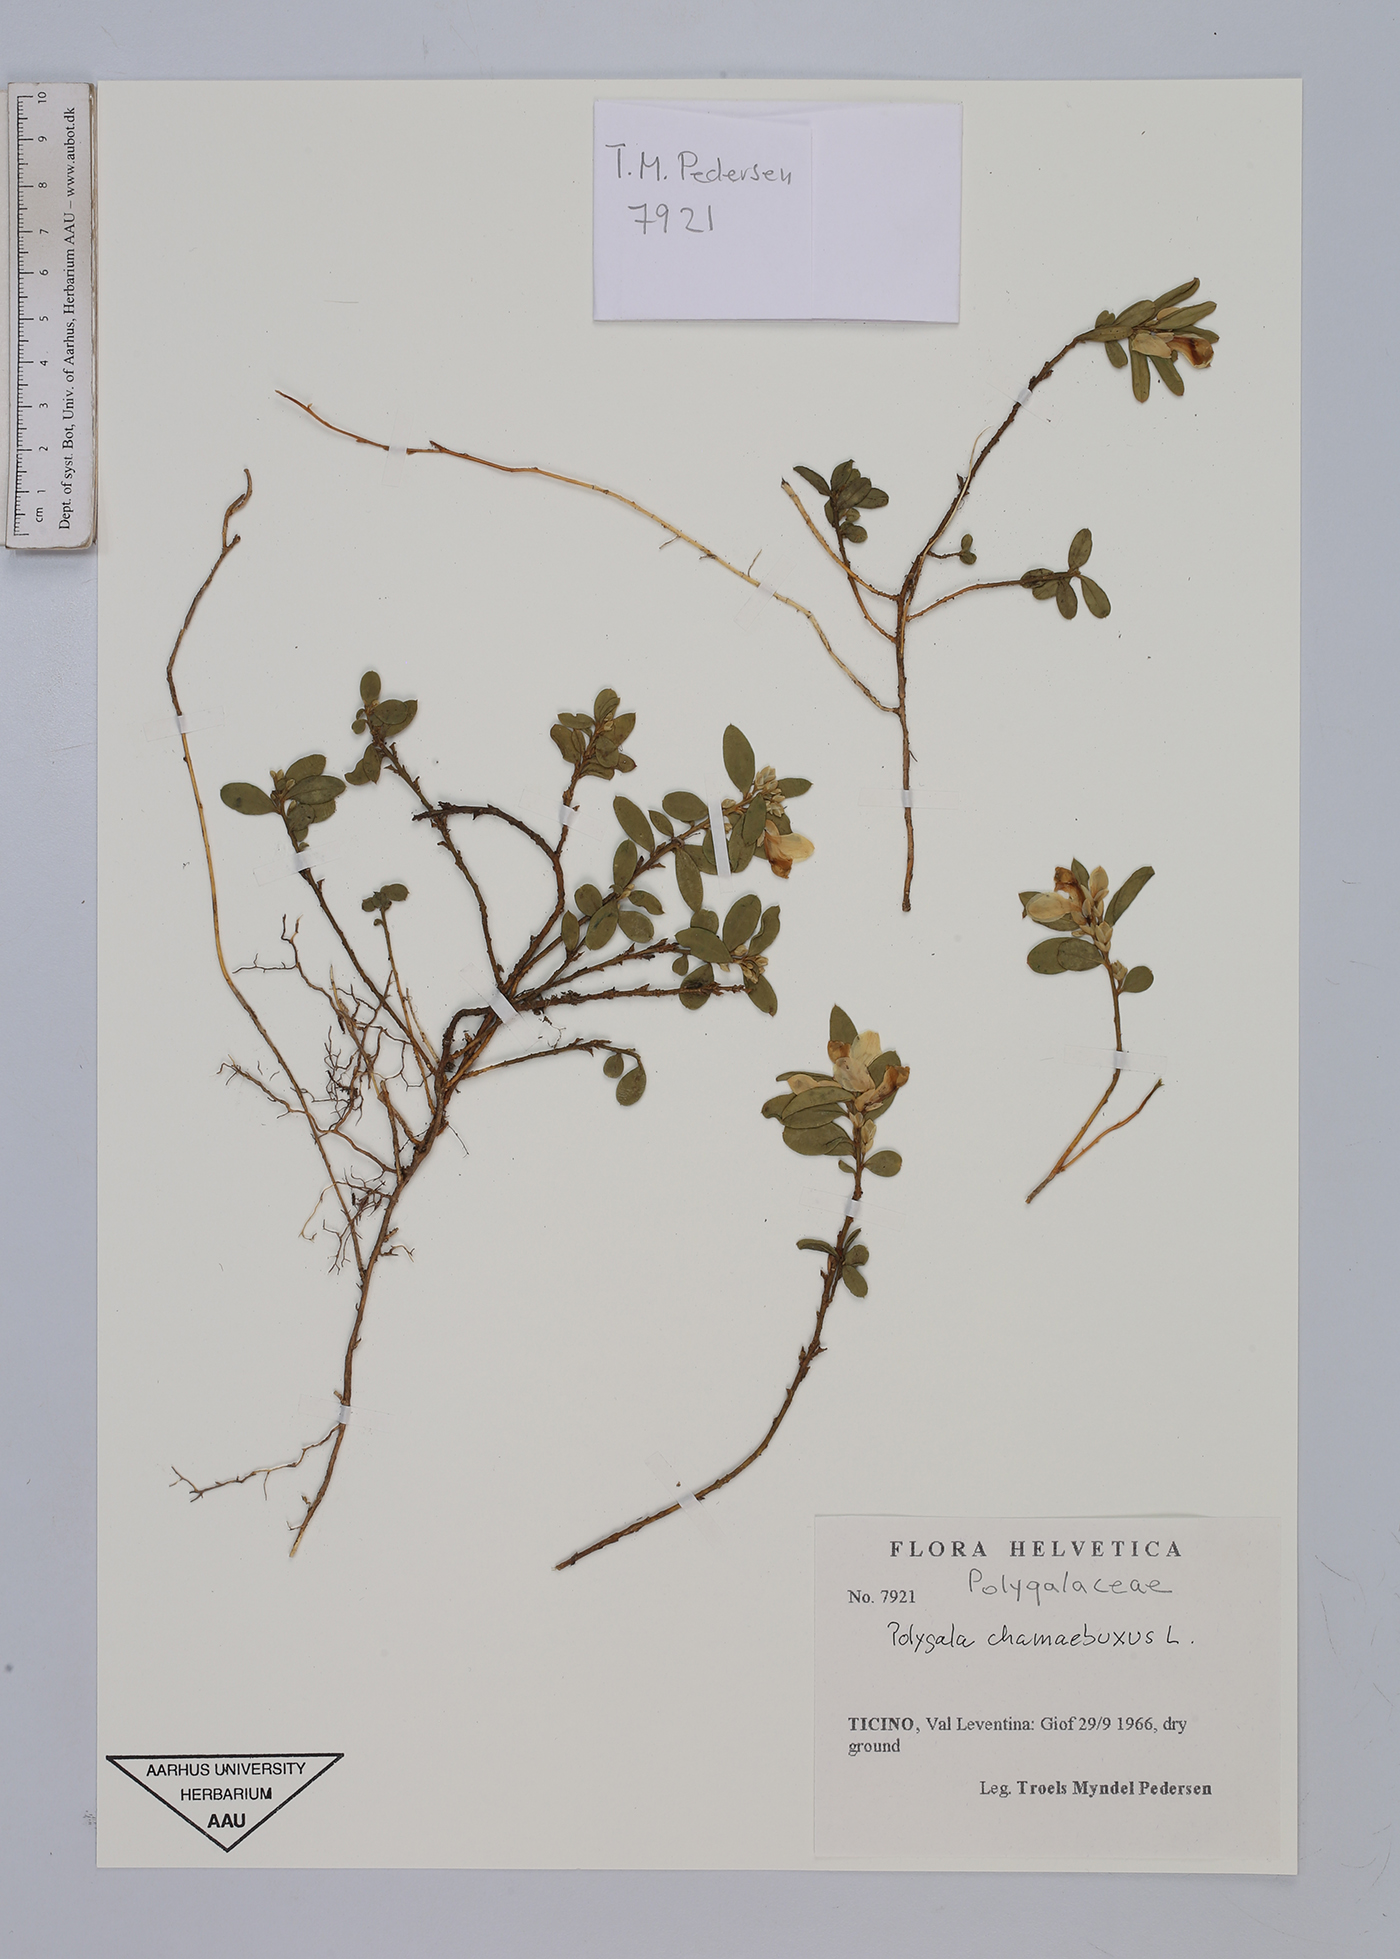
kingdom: Plantae
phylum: Tracheophyta
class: Magnoliopsida
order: Fabales
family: Polygalaceae
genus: Polygaloides
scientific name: Polygaloides chamaebuxus
